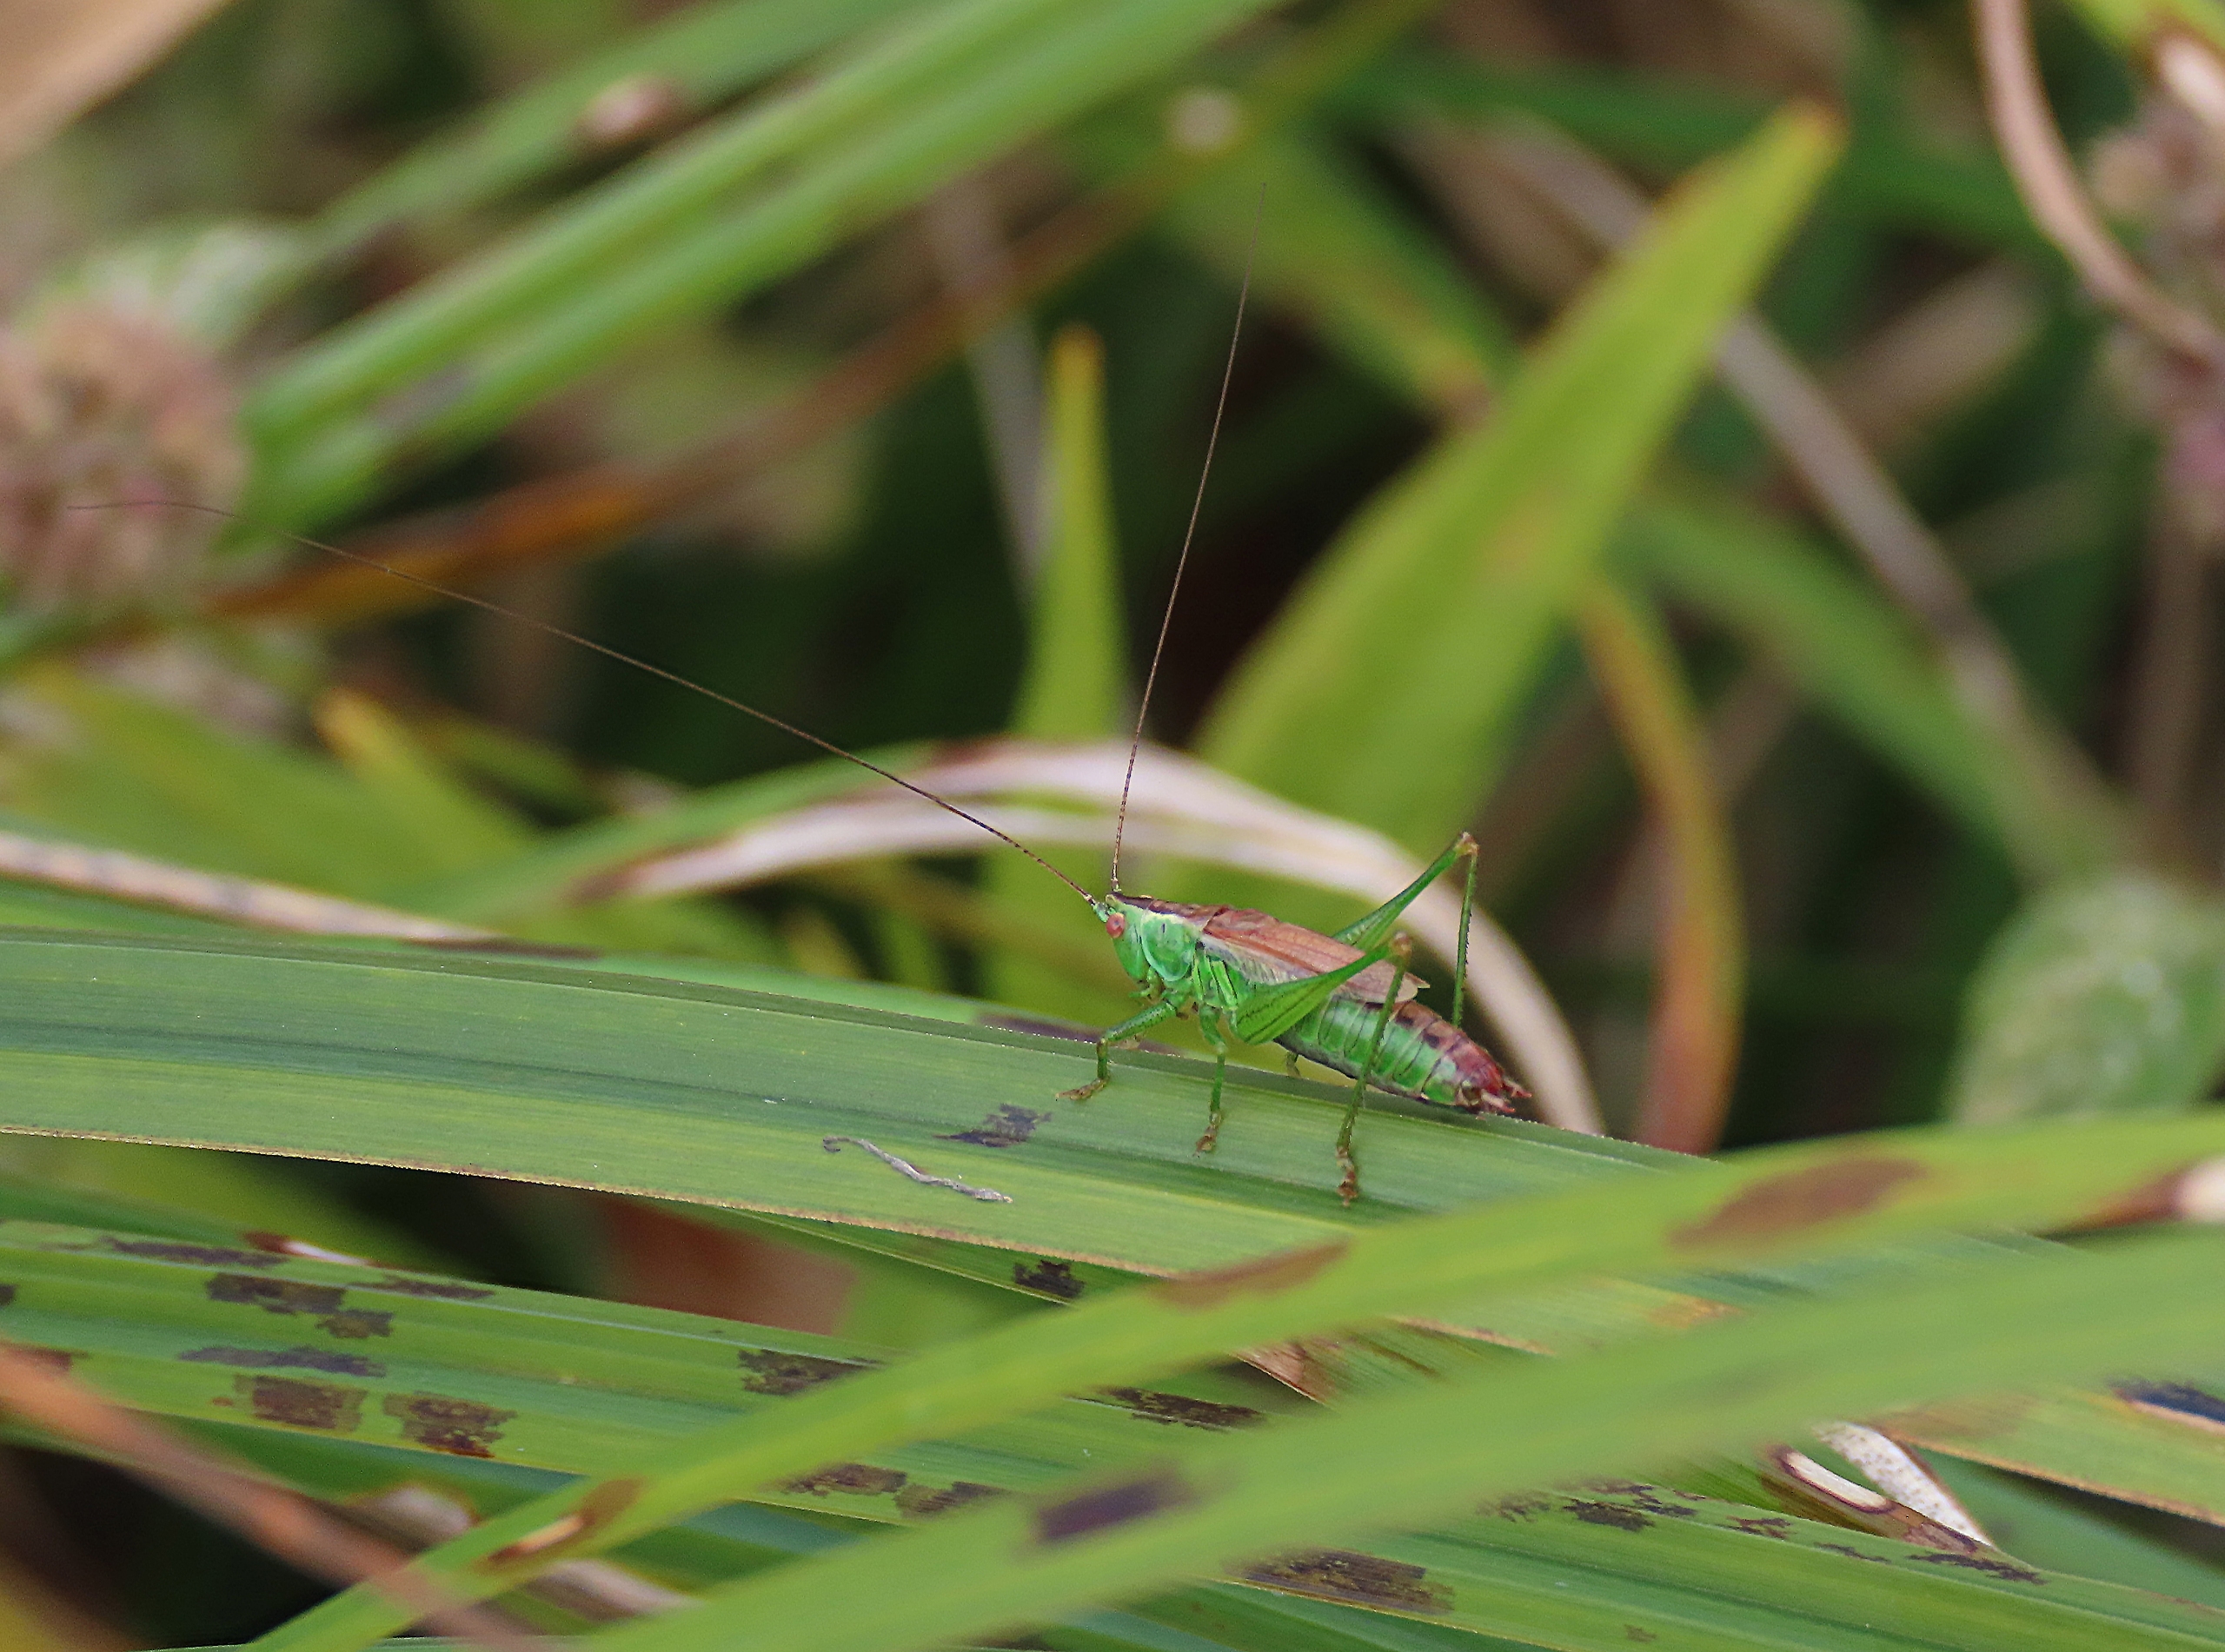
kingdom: Animalia
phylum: Arthropoda
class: Insecta
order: Orthoptera
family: Tettigoniidae
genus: Conocephalus
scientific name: Conocephalus dorsalis
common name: Sivgræshoppe
